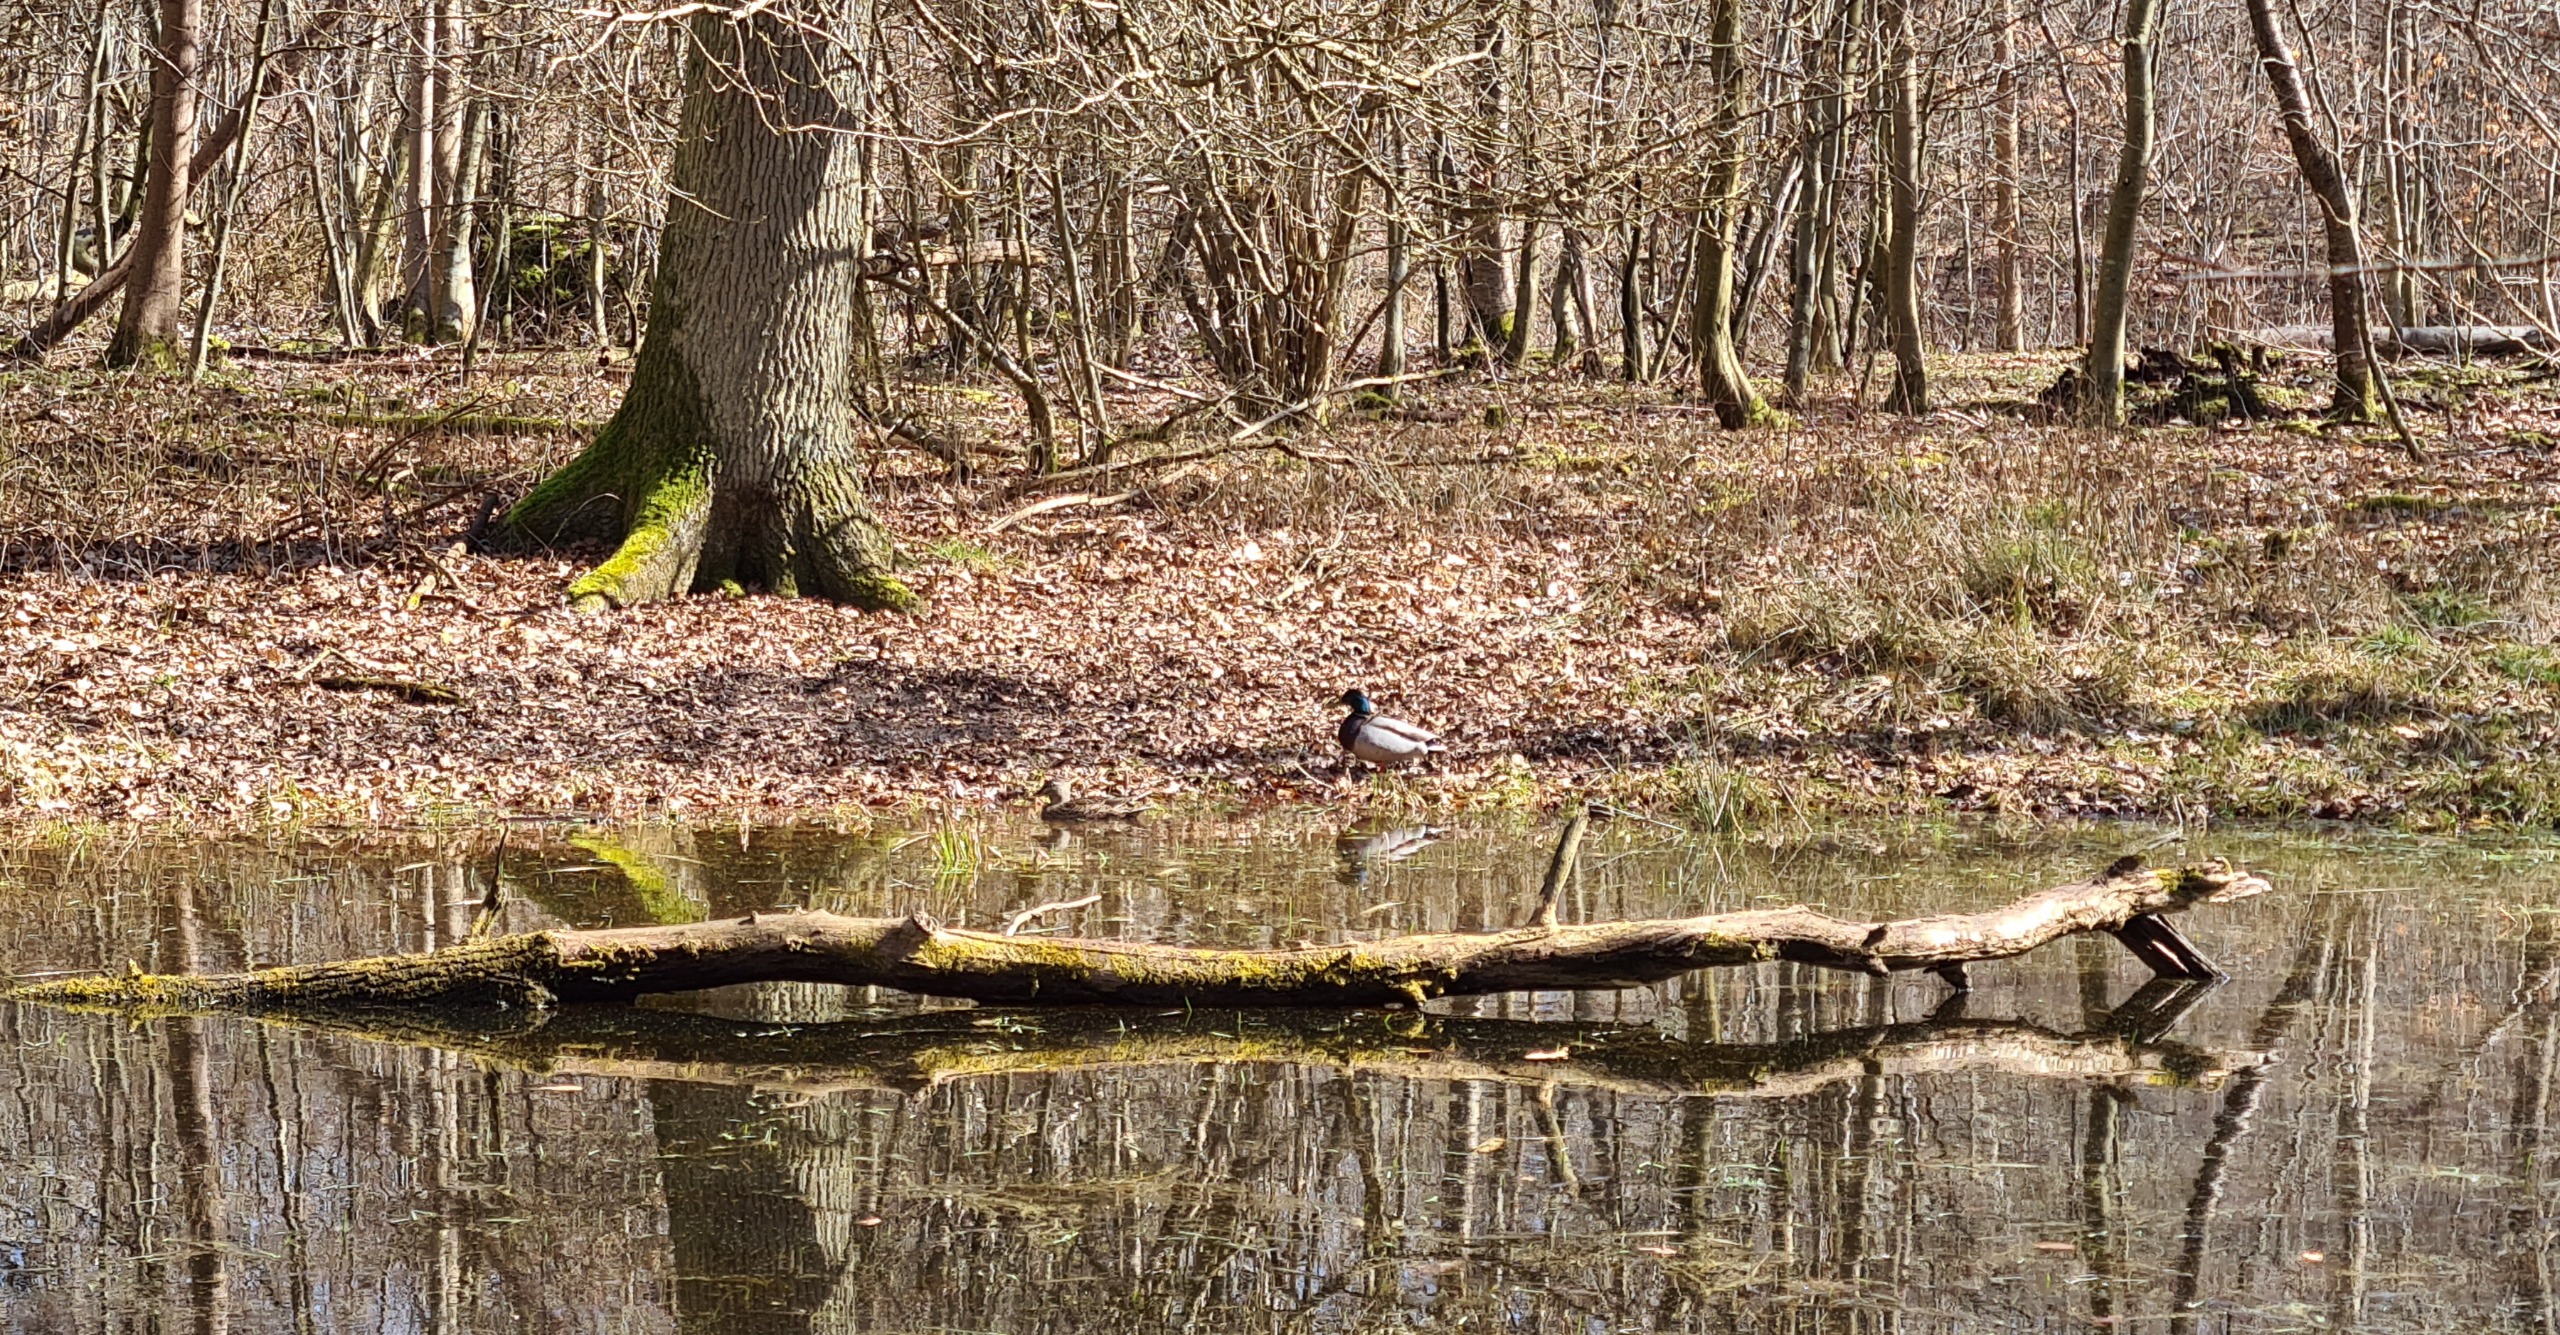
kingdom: Animalia
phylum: Chordata
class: Aves
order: Anseriformes
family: Anatidae
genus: Anas
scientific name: Anas platyrhynchos
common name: Gråand
